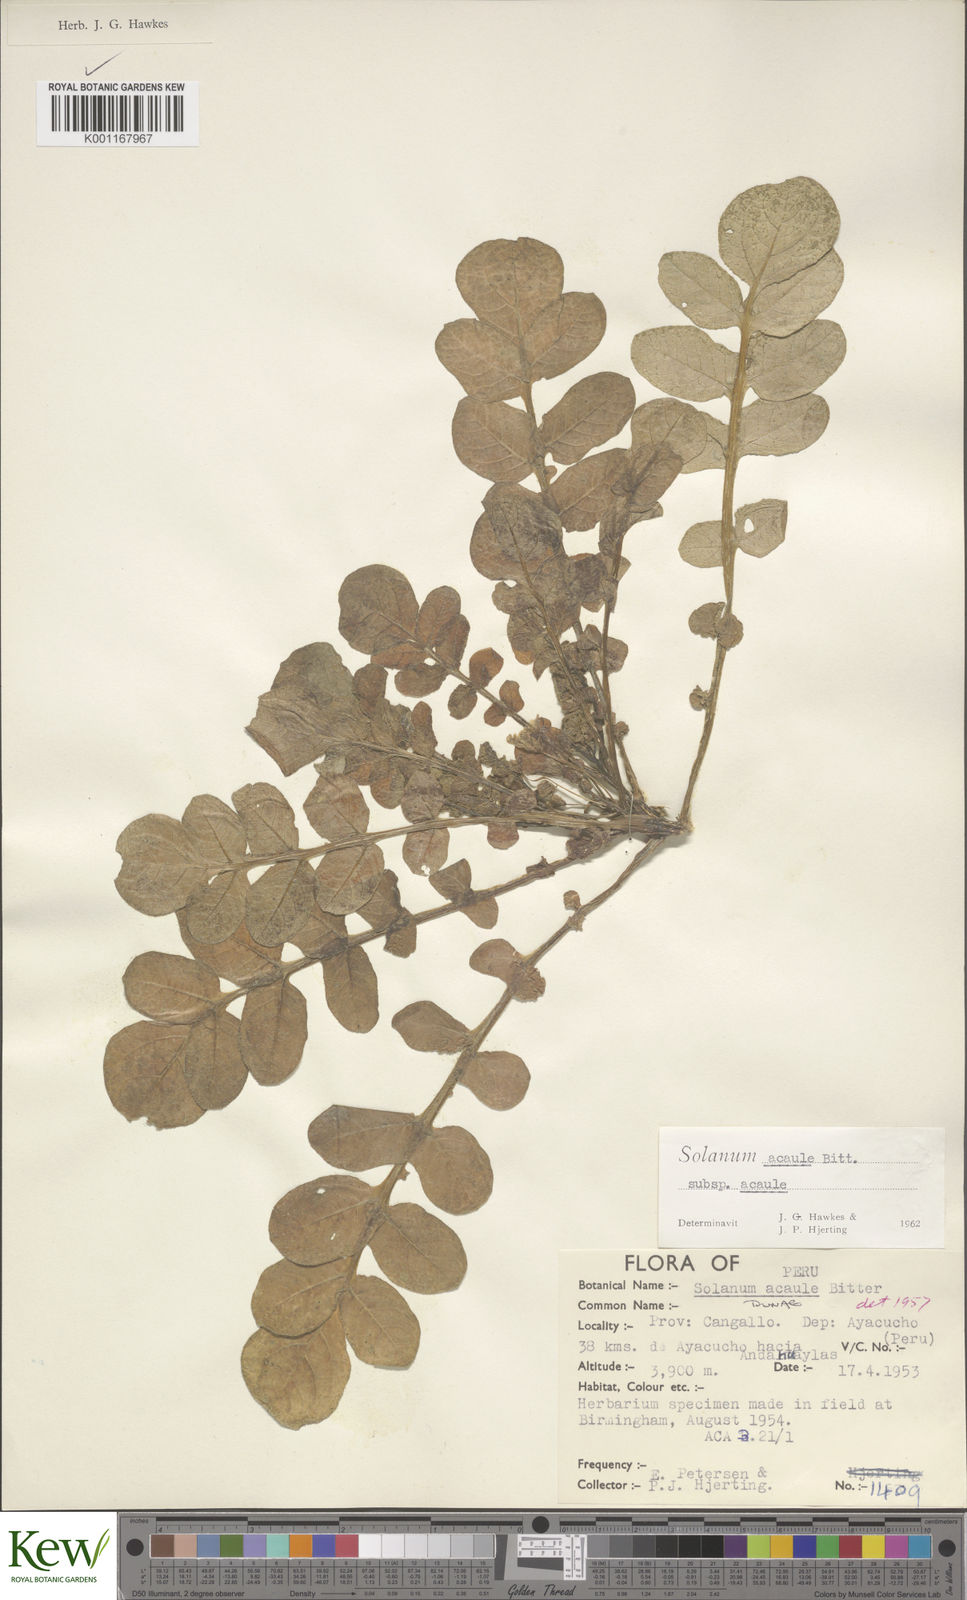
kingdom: Plantae
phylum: Tracheophyta
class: Magnoliopsida
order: Solanales
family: Solanaceae
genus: Solanum
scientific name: Solanum acaule
